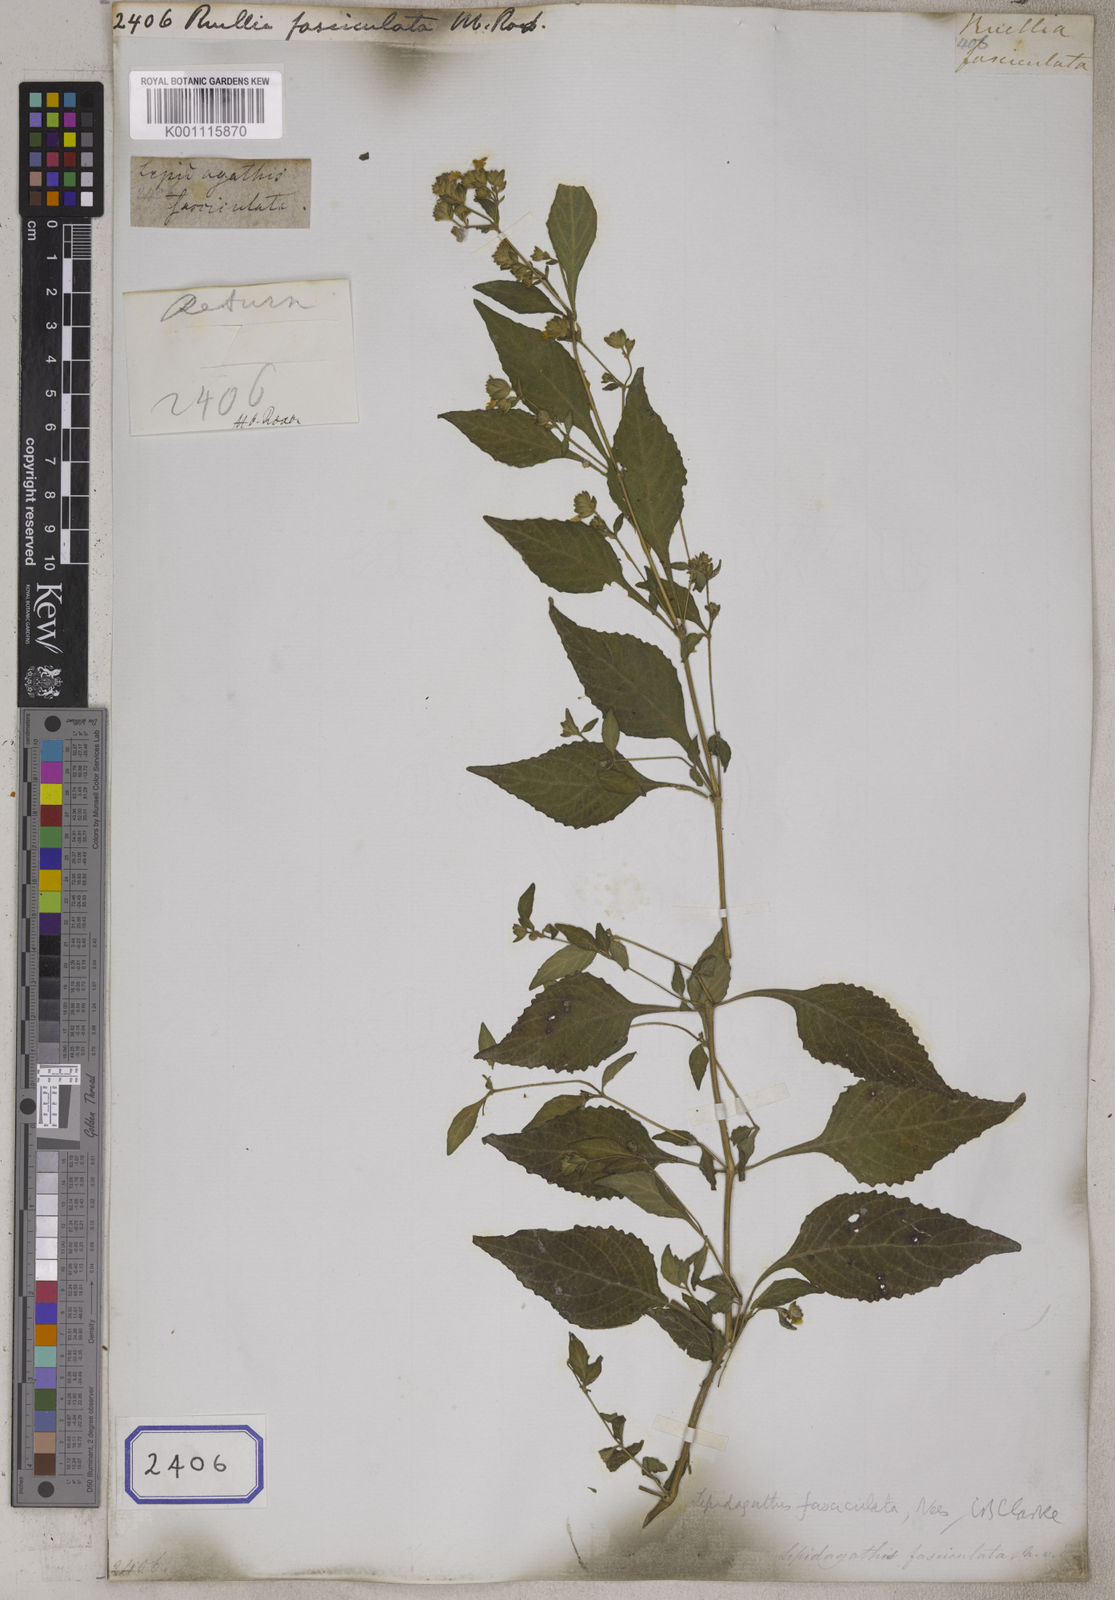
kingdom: Plantae
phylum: Tracheophyta
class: Magnoliopsida
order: Lamiales
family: Acanthaceae
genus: Strobilanthes
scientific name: Strobilanthes pavala
